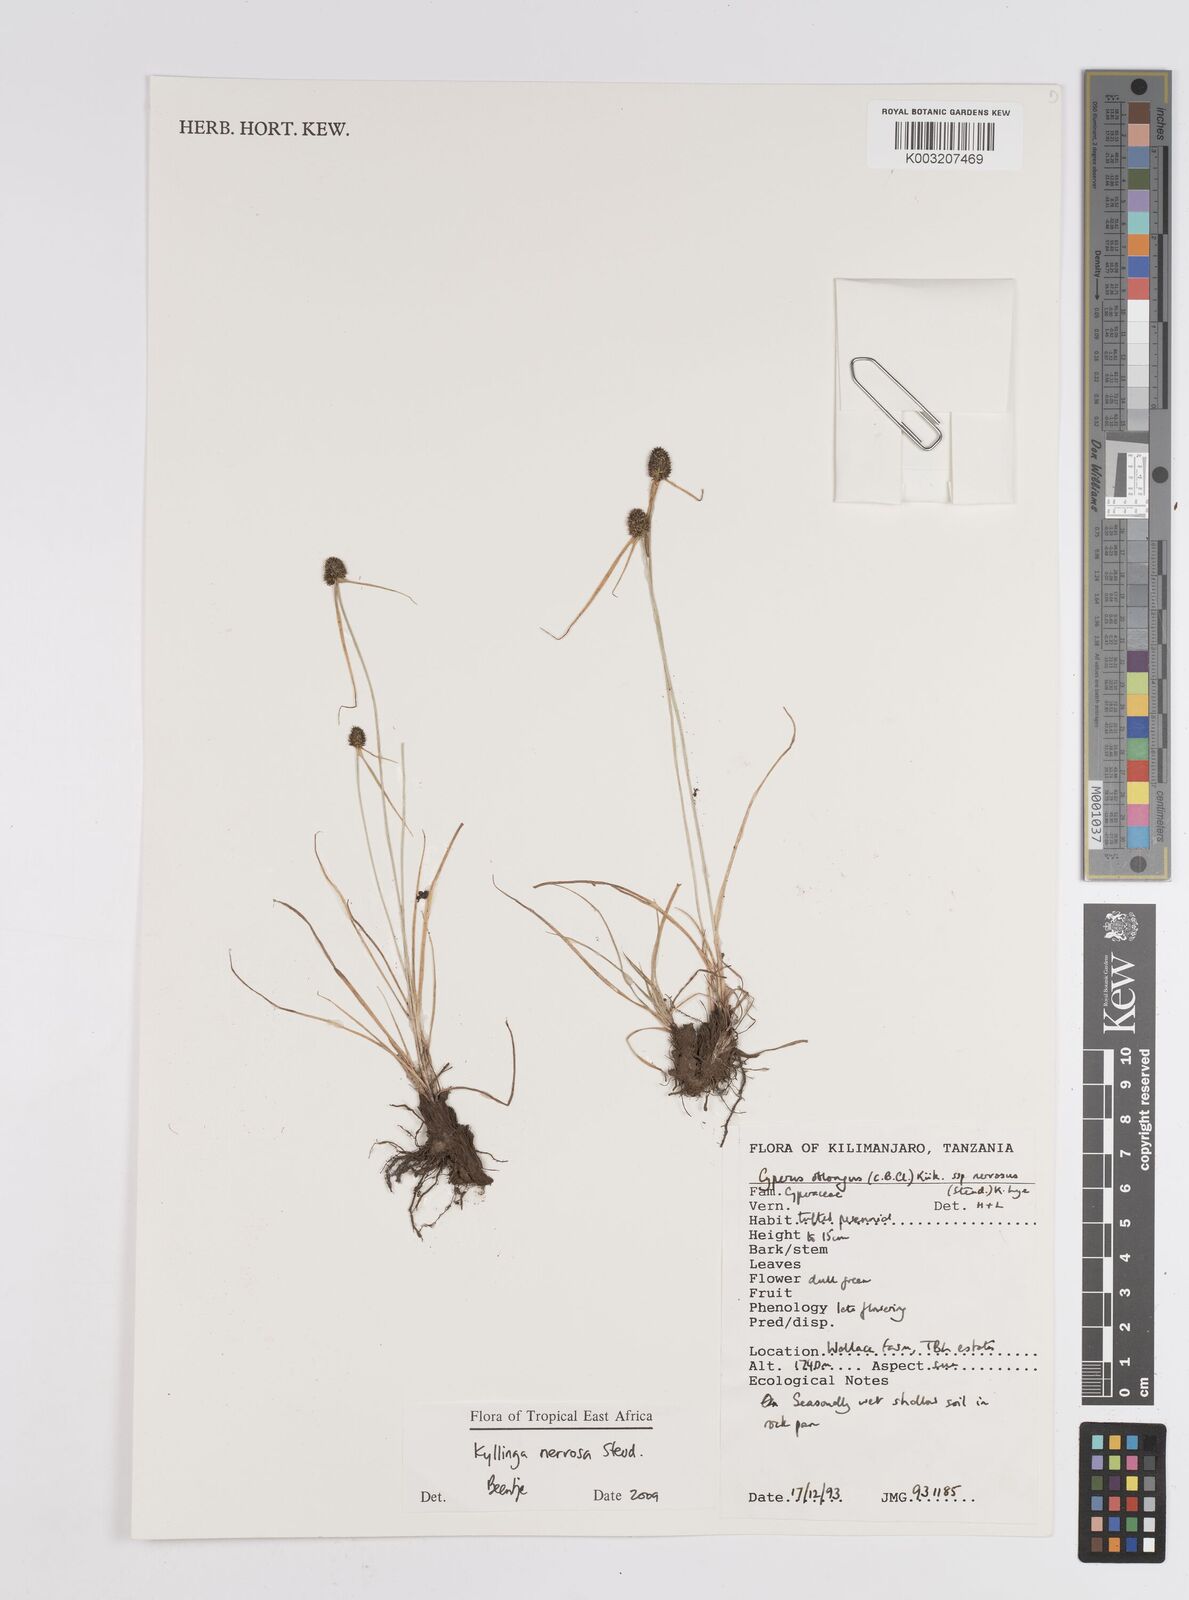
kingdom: Plantae
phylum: Tracheophyta
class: Liliopsida
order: Poales
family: Cyperaceae
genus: Cyperus
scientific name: Cyperus
